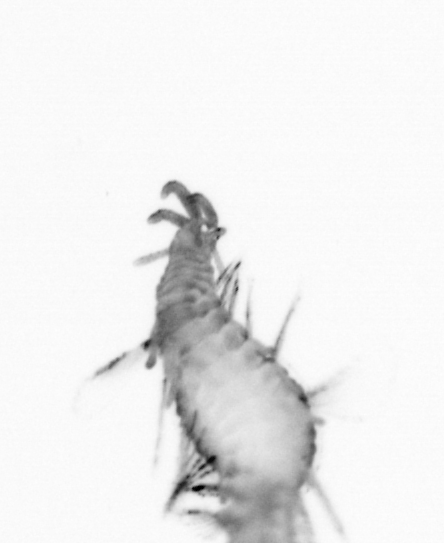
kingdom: Animalia
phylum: Annelida
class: Polychaeta
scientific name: Polychaeta
